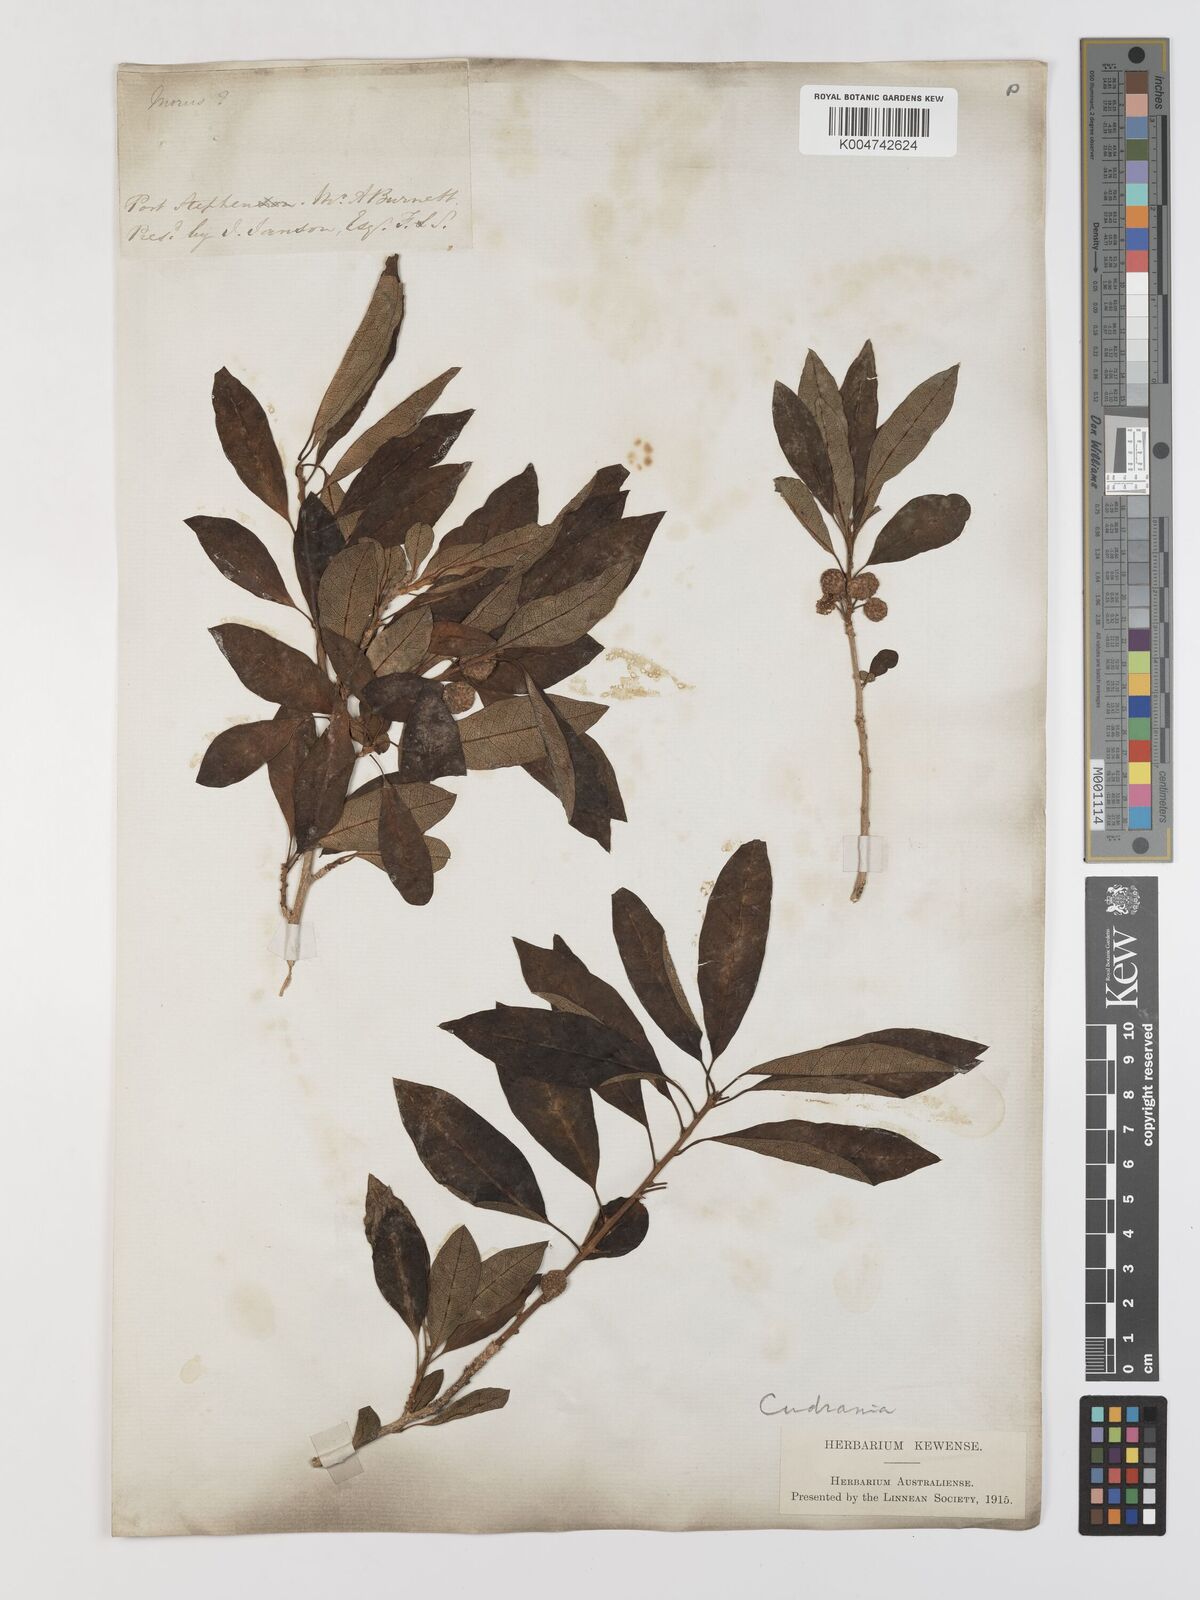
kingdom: Plantae
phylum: Tracheophyta
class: Magnoliopsida
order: Rosales
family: Moraceae
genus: Maclura
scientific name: Maclura cochinchinensis
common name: Cockspurthorn
